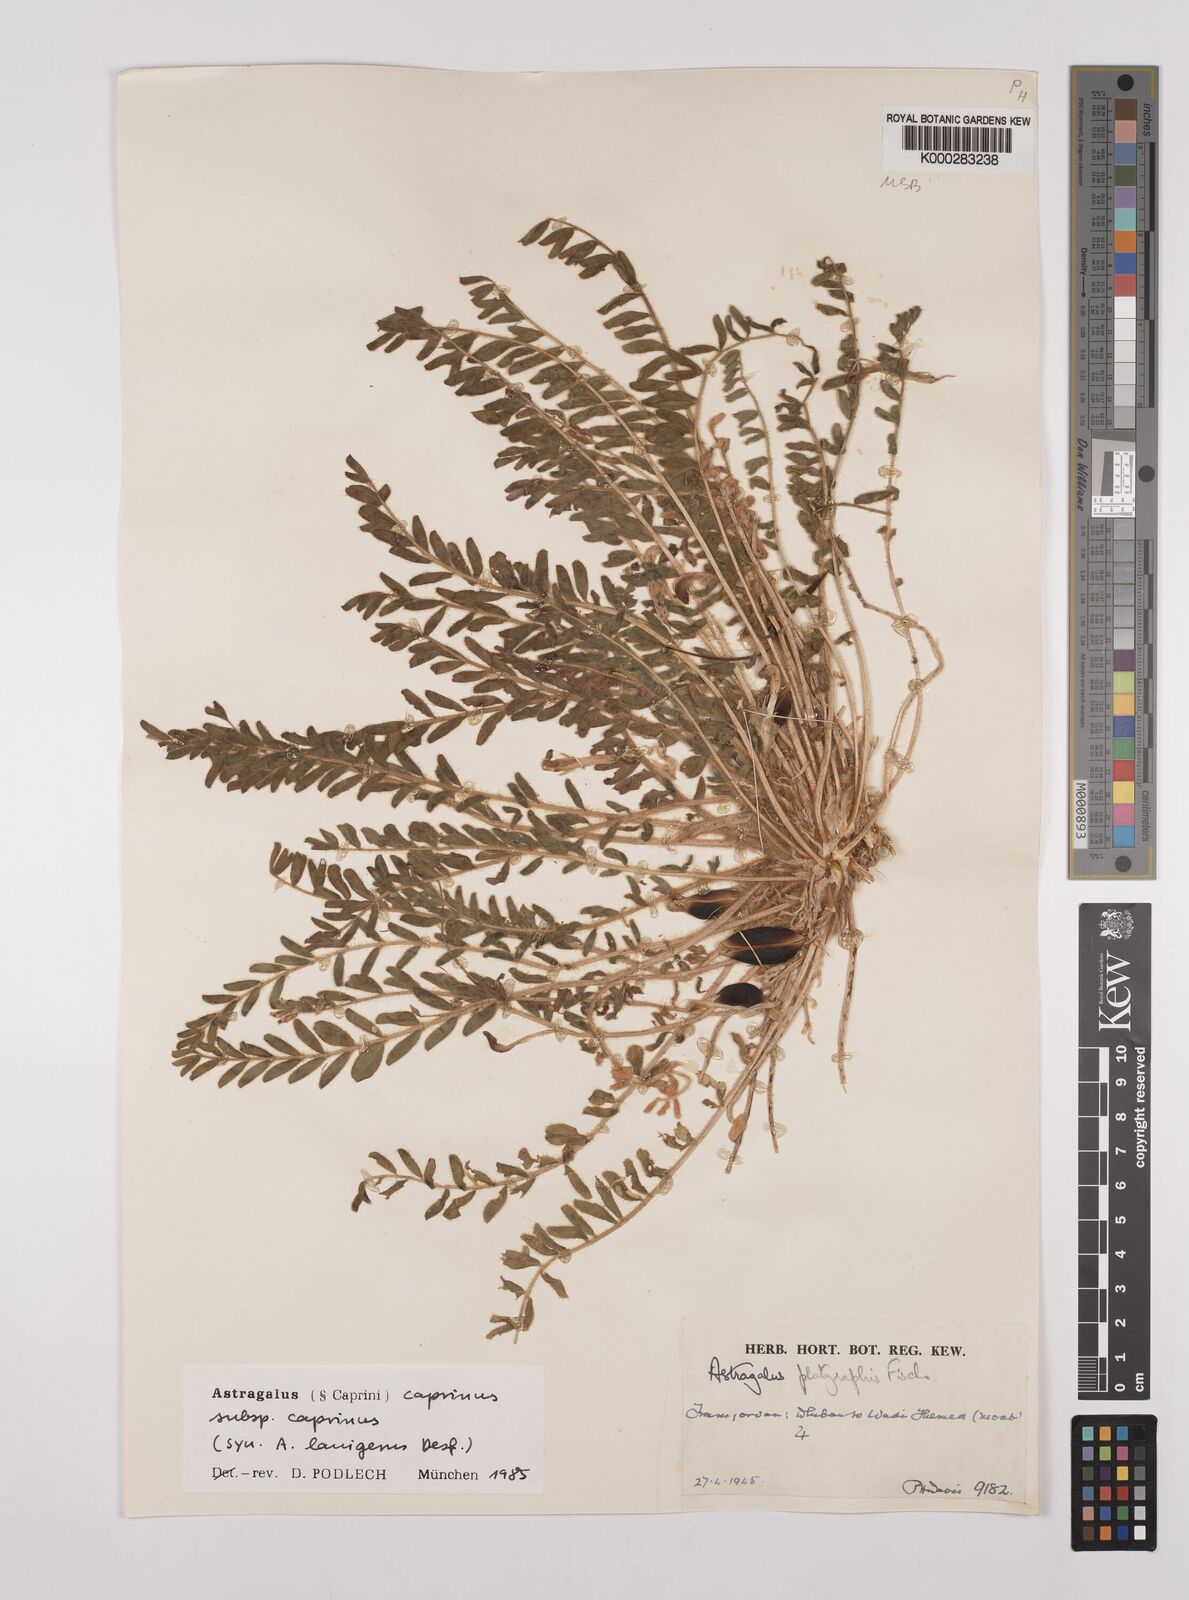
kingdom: Plantae
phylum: Tracheophyta
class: Magnoliopsida
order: Fabales
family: Fabaceae
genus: Astragalus
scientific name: Astragalus caprinus
